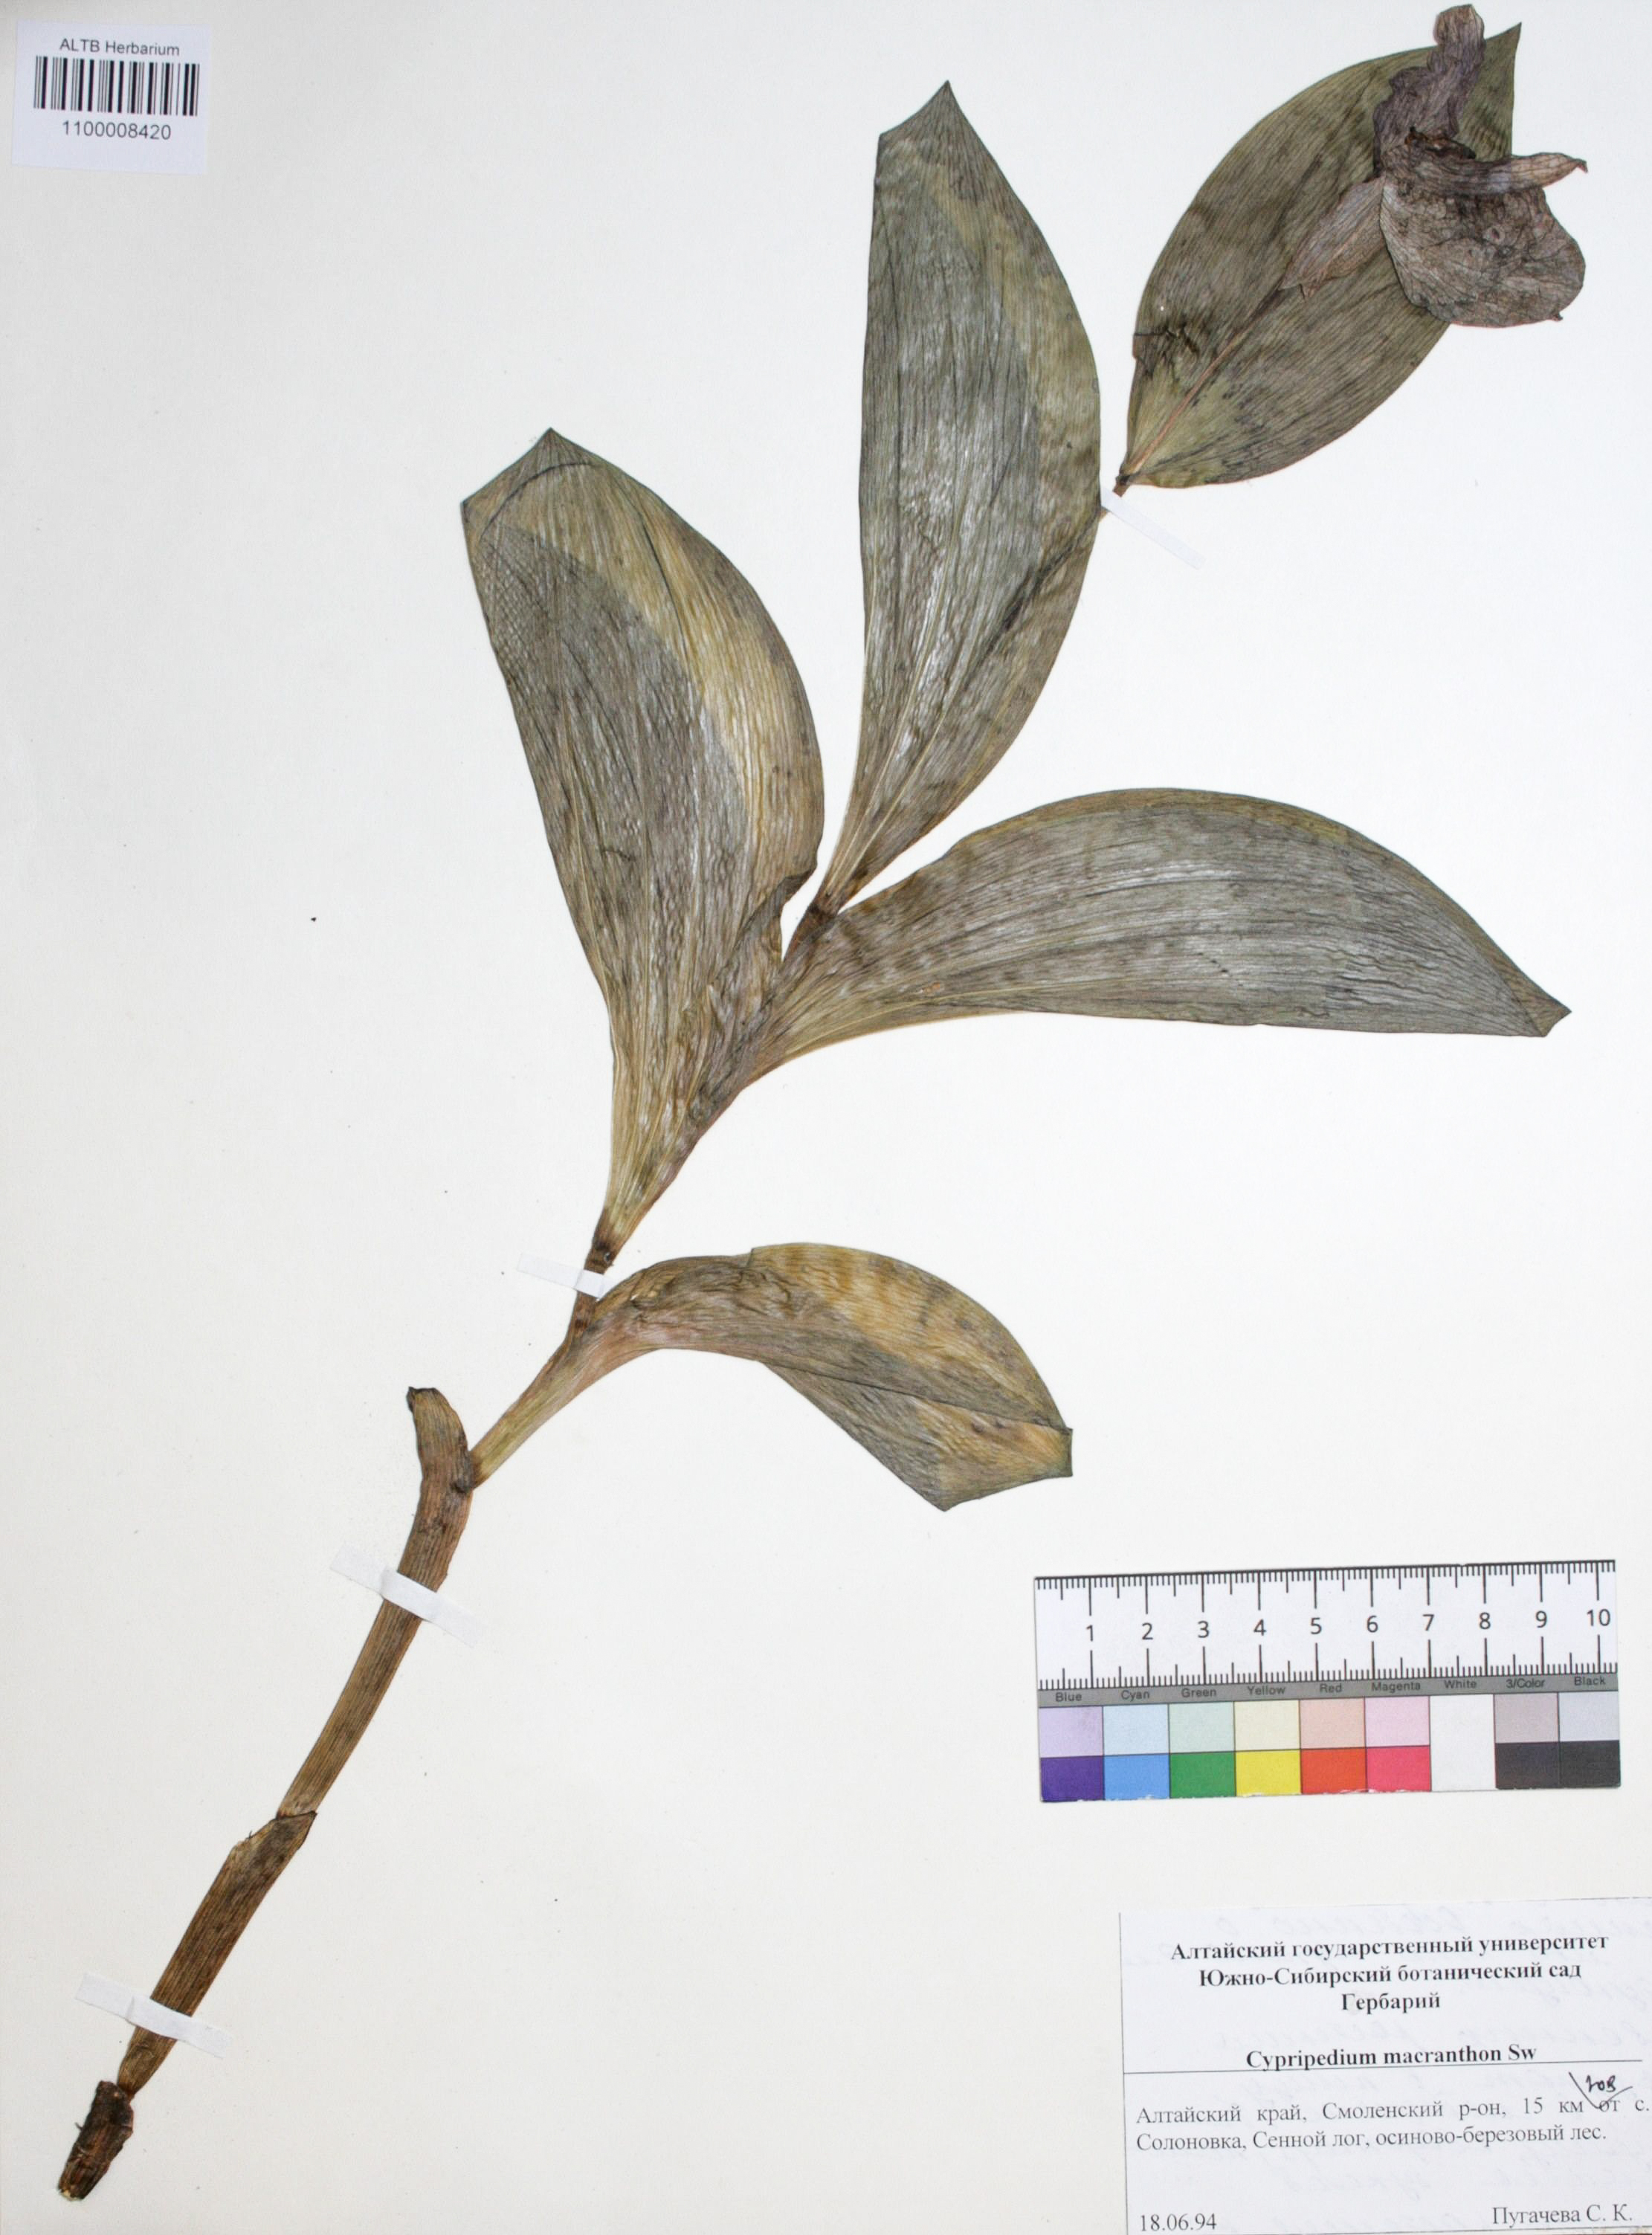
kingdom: Plantae
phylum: Tracheophyta
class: Liliopsida
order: Asparagales
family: Orchidaceae
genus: Cypripedium
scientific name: Cypripedium macranthon
